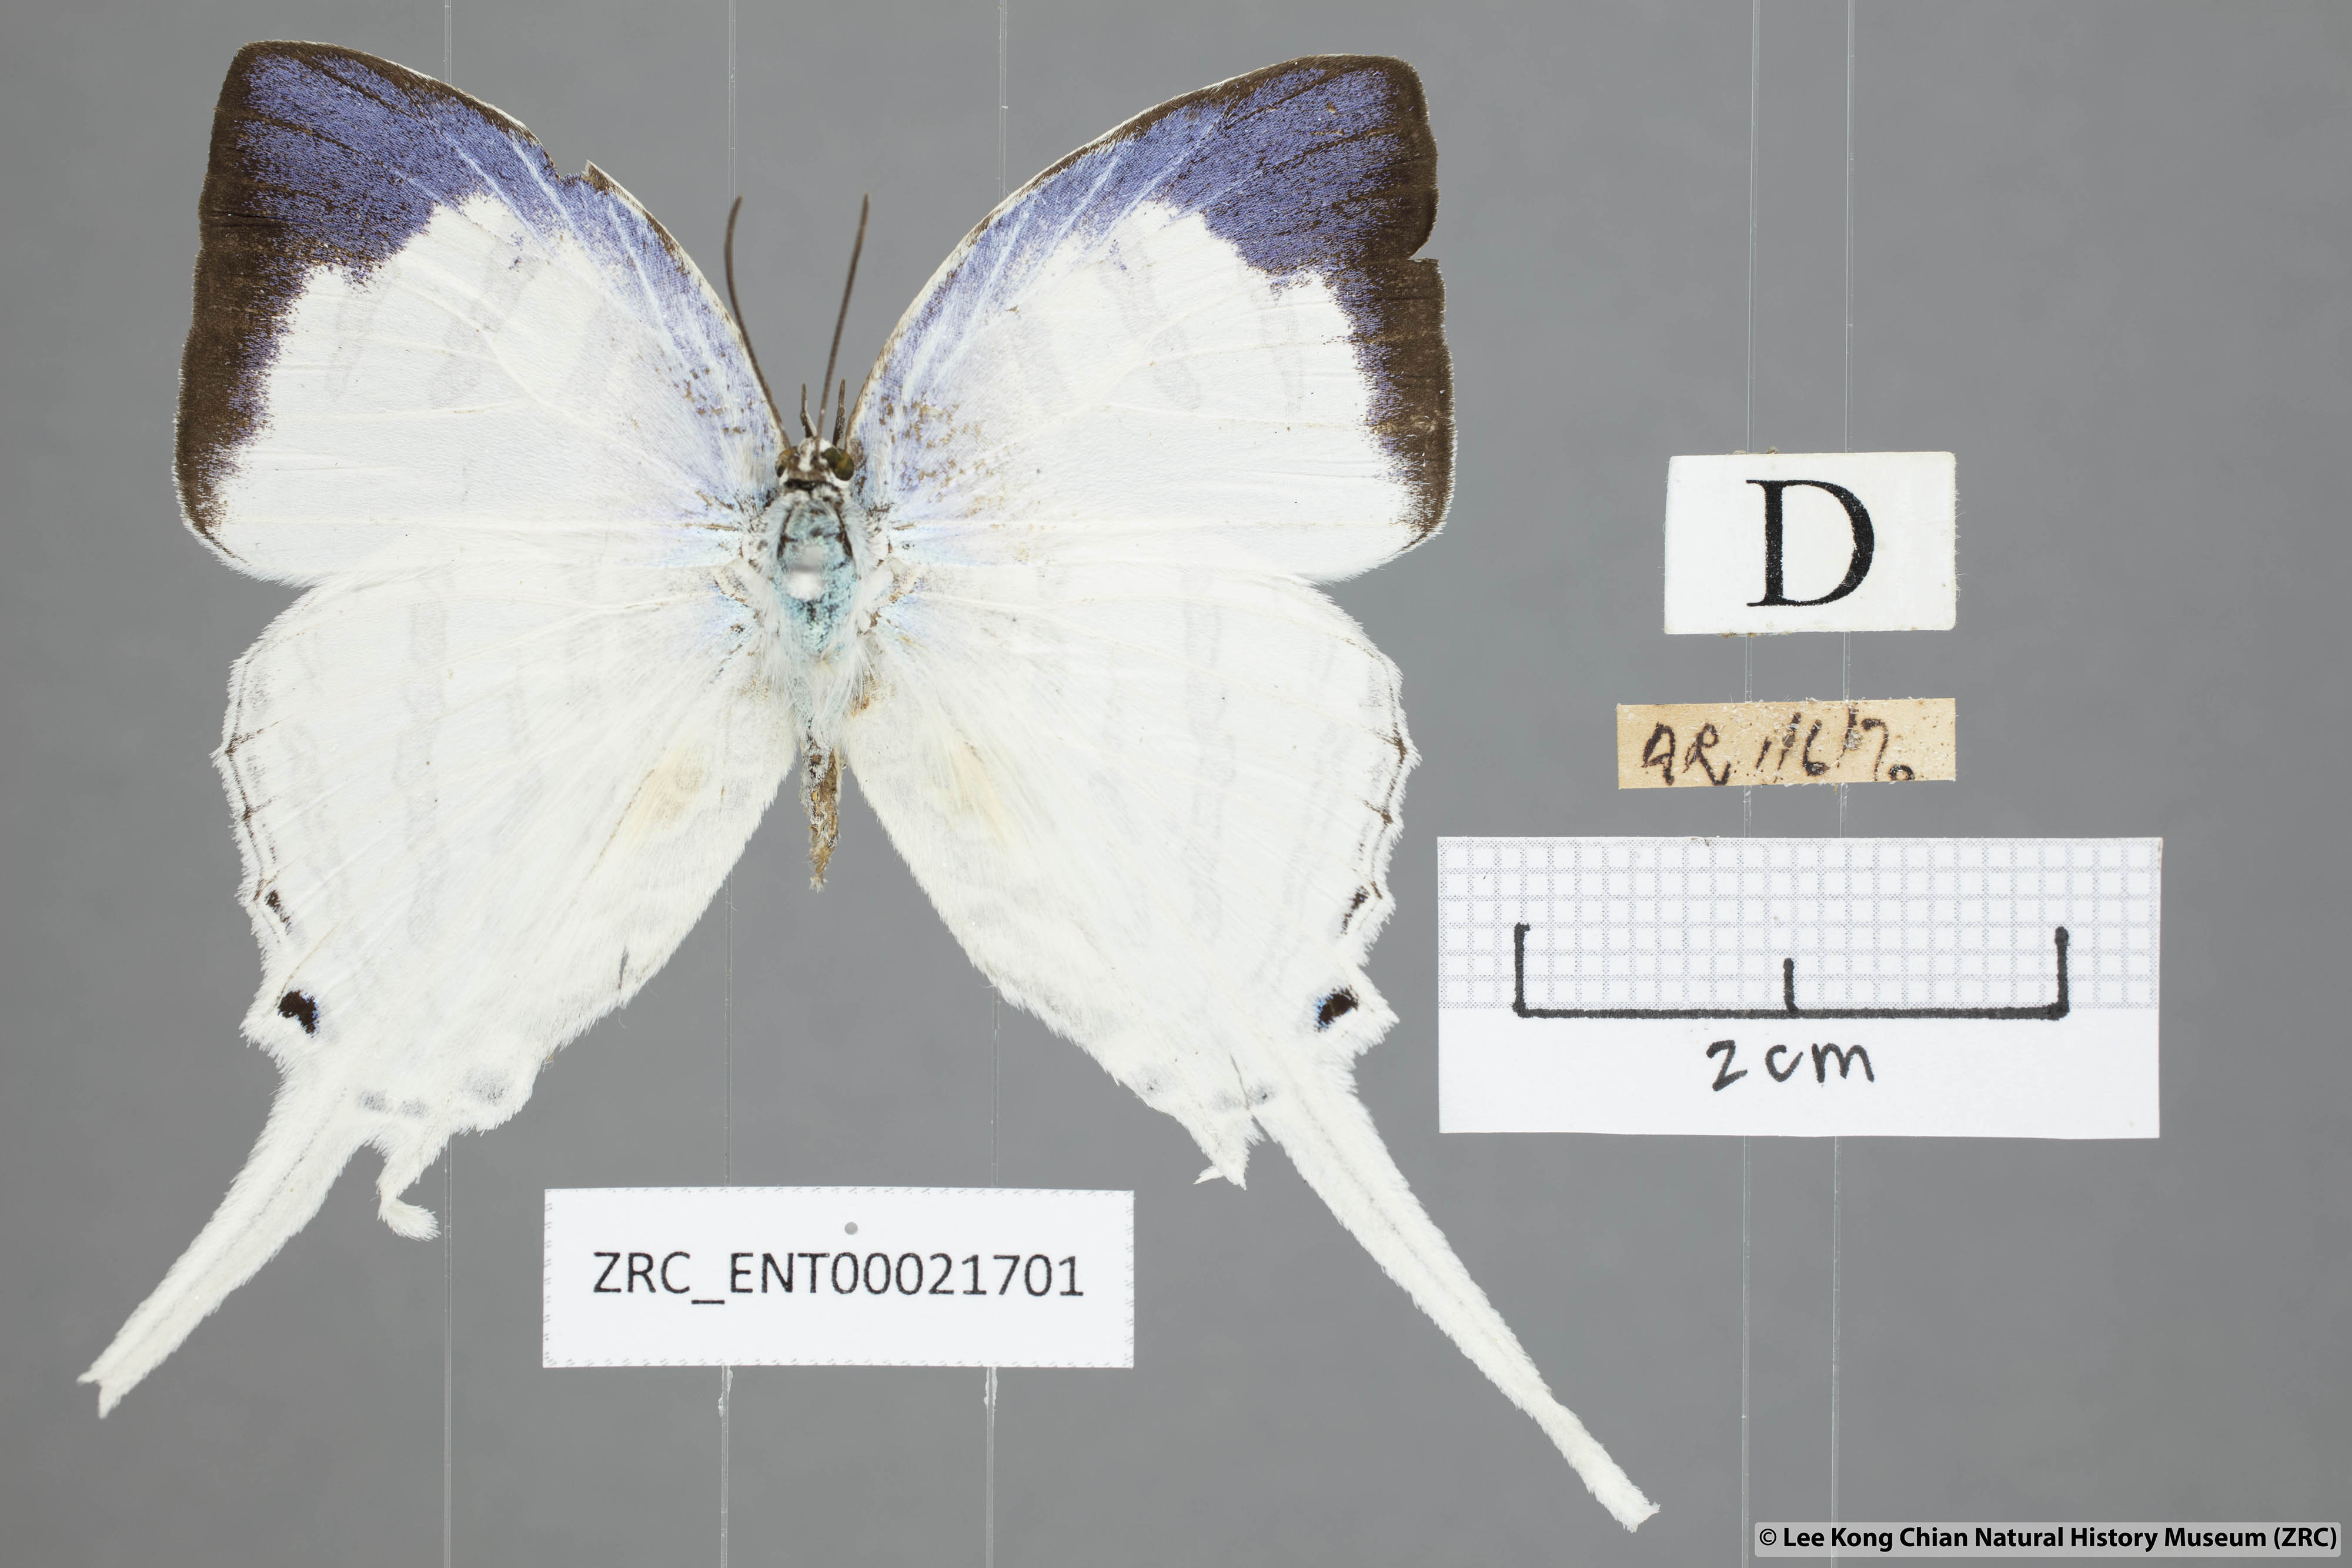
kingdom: Animalia
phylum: Arthropoda
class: Insecta
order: Lepidoptera
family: Lycaenidae
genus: Neomyrina
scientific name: Neomyrina nivea
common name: White imperial butterfly
